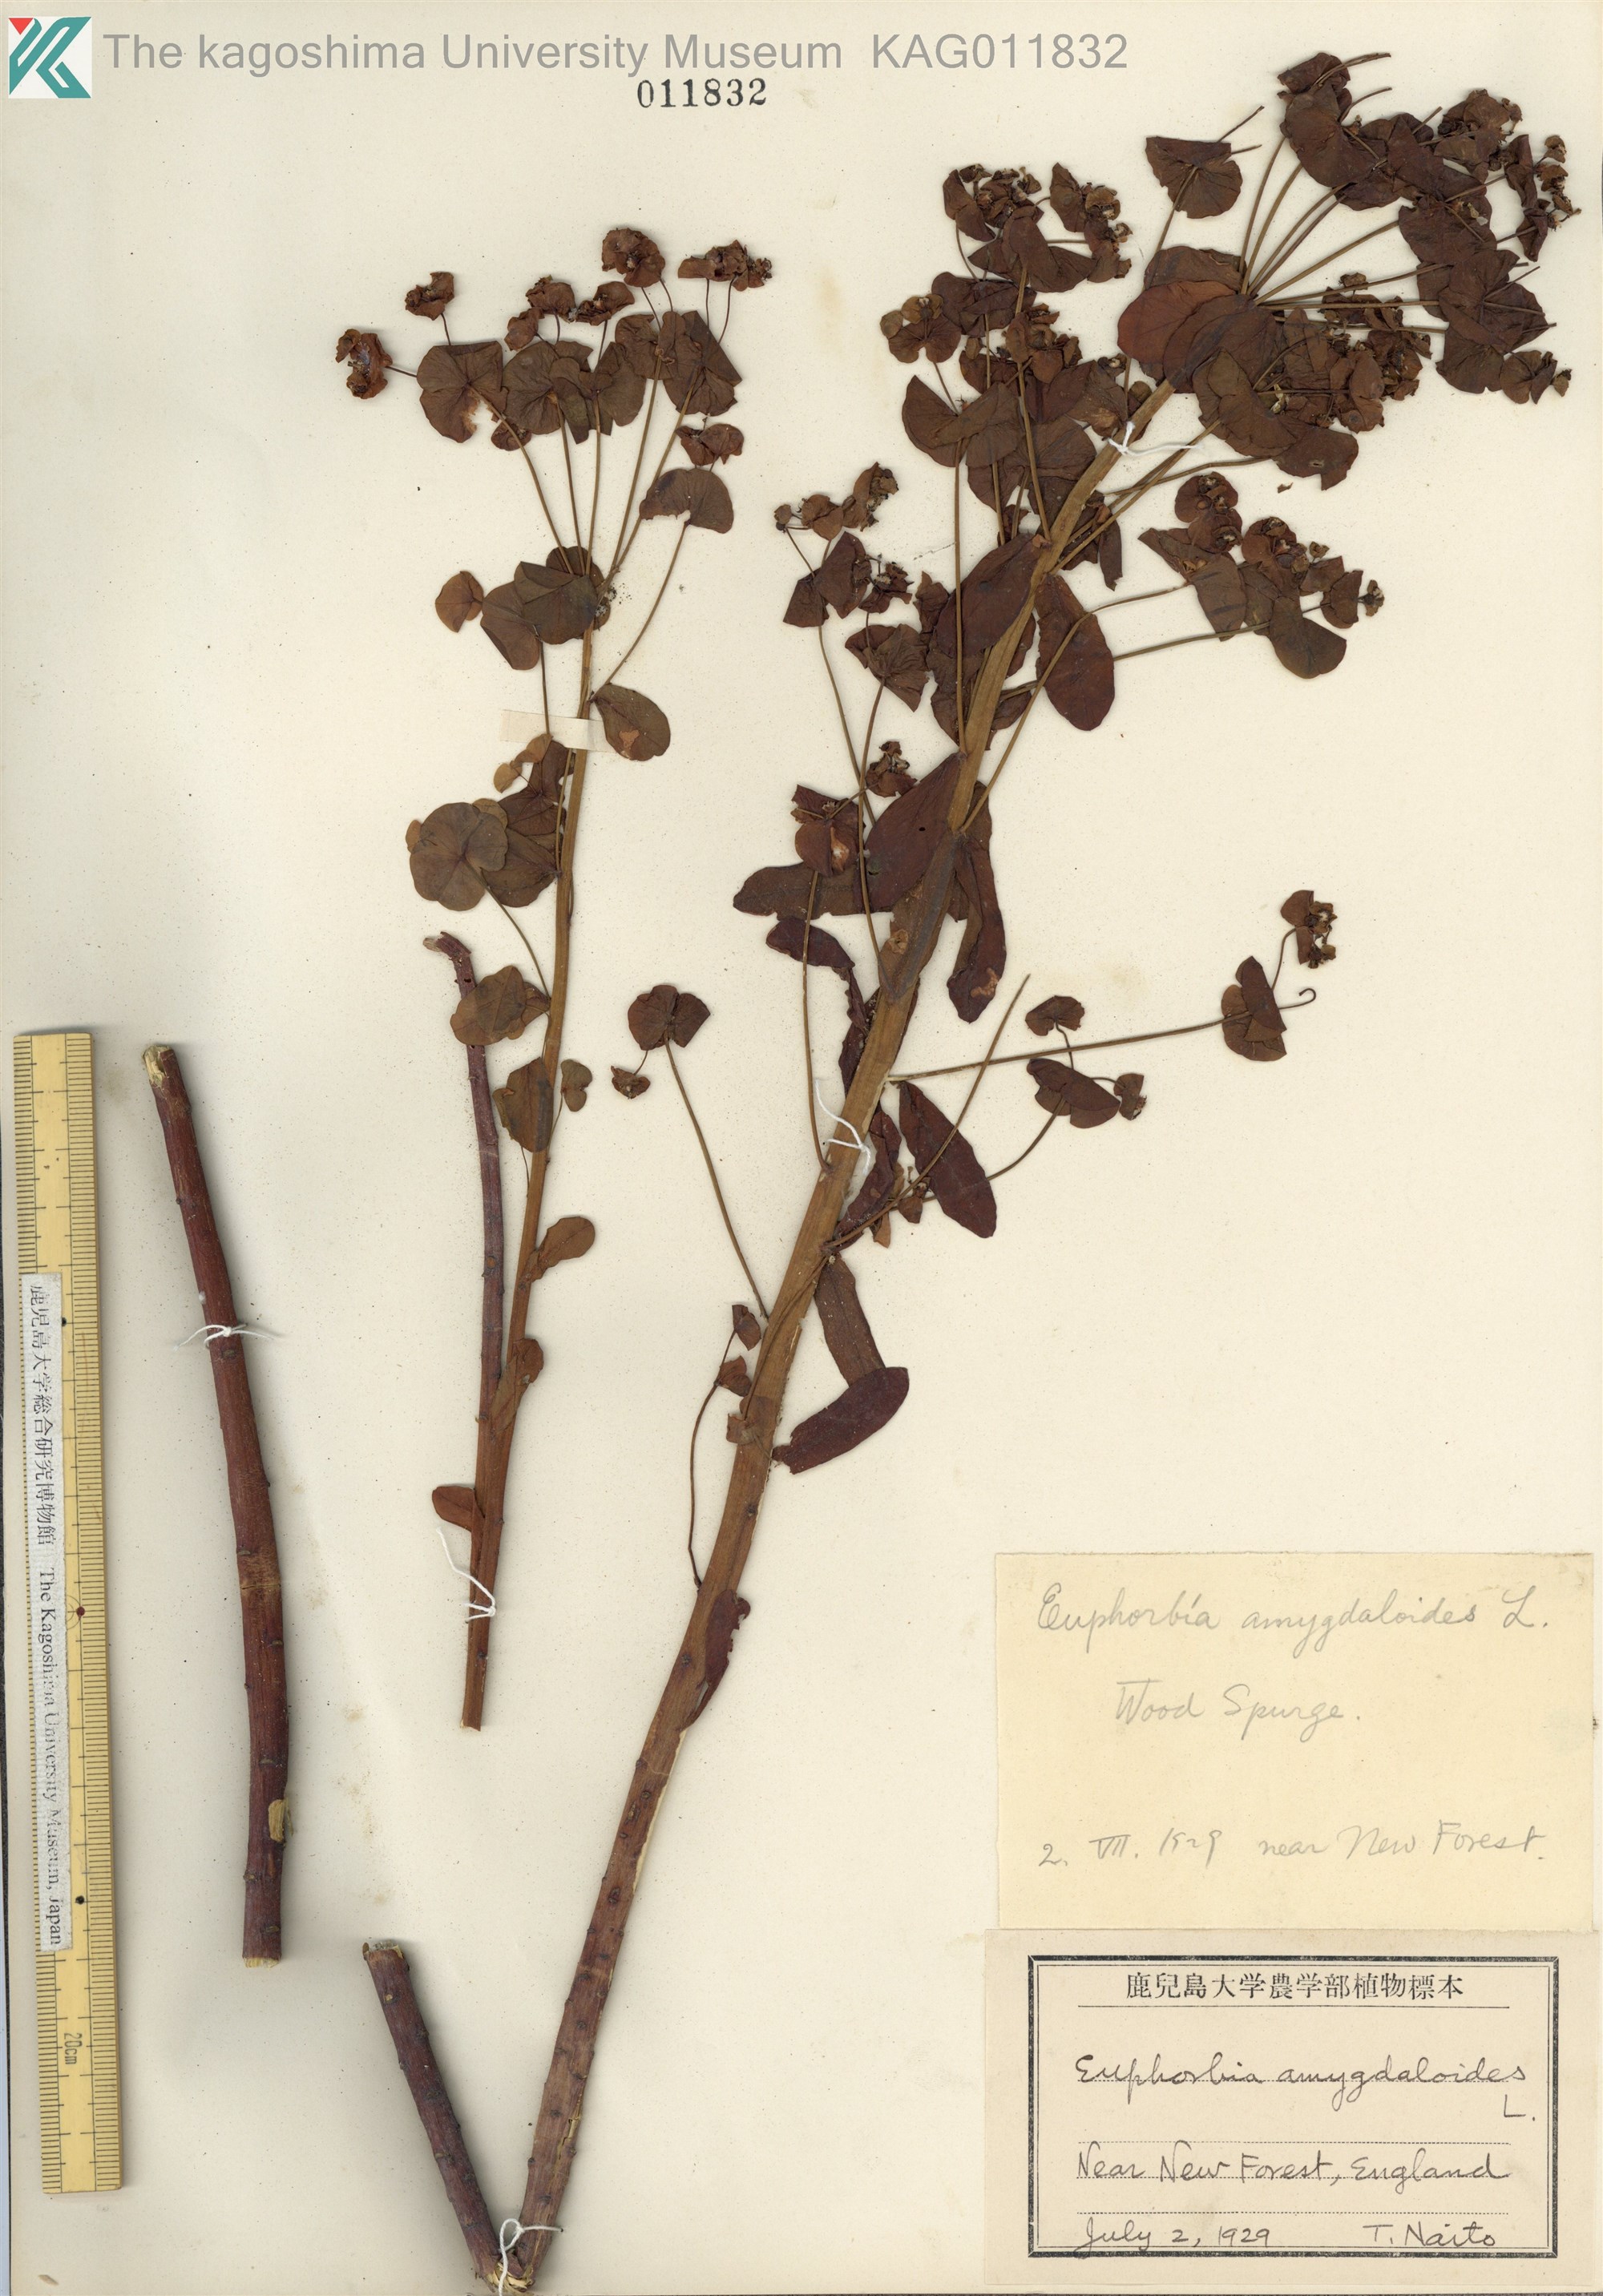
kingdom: Plantae
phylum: Tracheophyta
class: Magnoliopsida
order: Malpighiales
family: Euphorbiaceae
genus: Euphorbia
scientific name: Euphorbia amygdaloides
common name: Wood spurge
